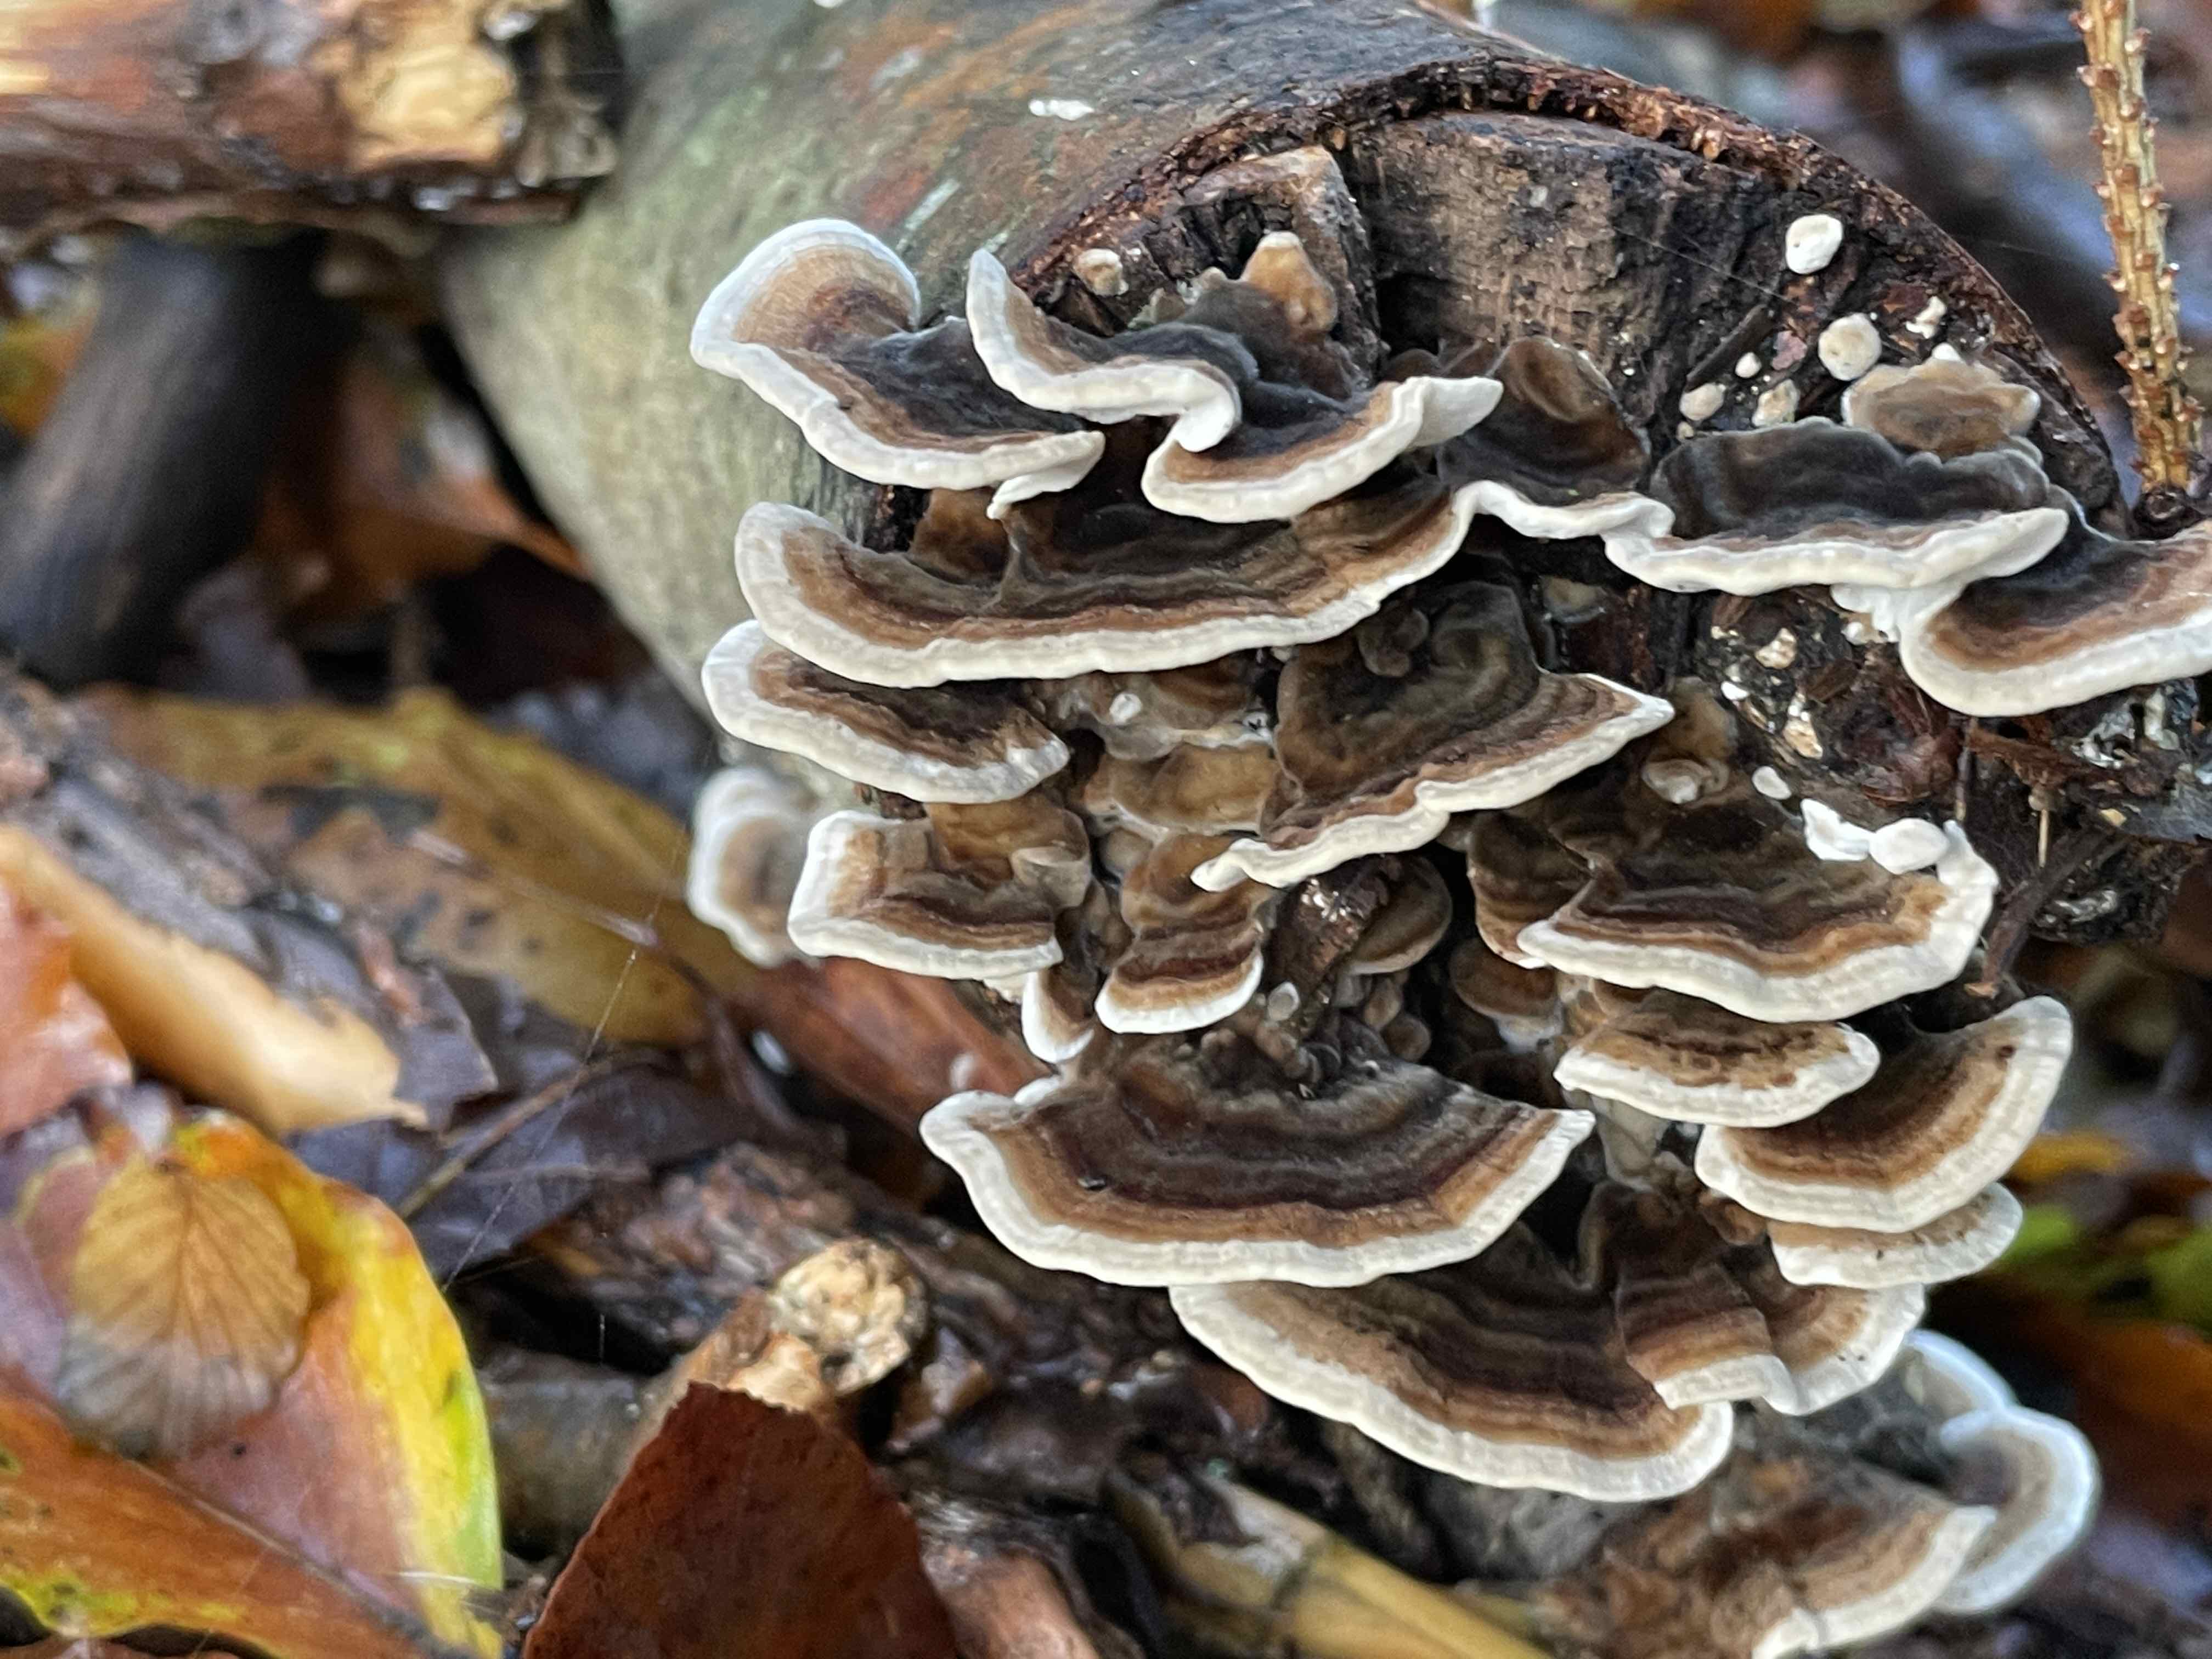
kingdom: Fungi
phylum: Basidiomycota
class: Agaricomycetes
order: Polyporales
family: Polyporaceae
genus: Trametes
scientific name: Trametes versicolor
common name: broget læderporesvamp
